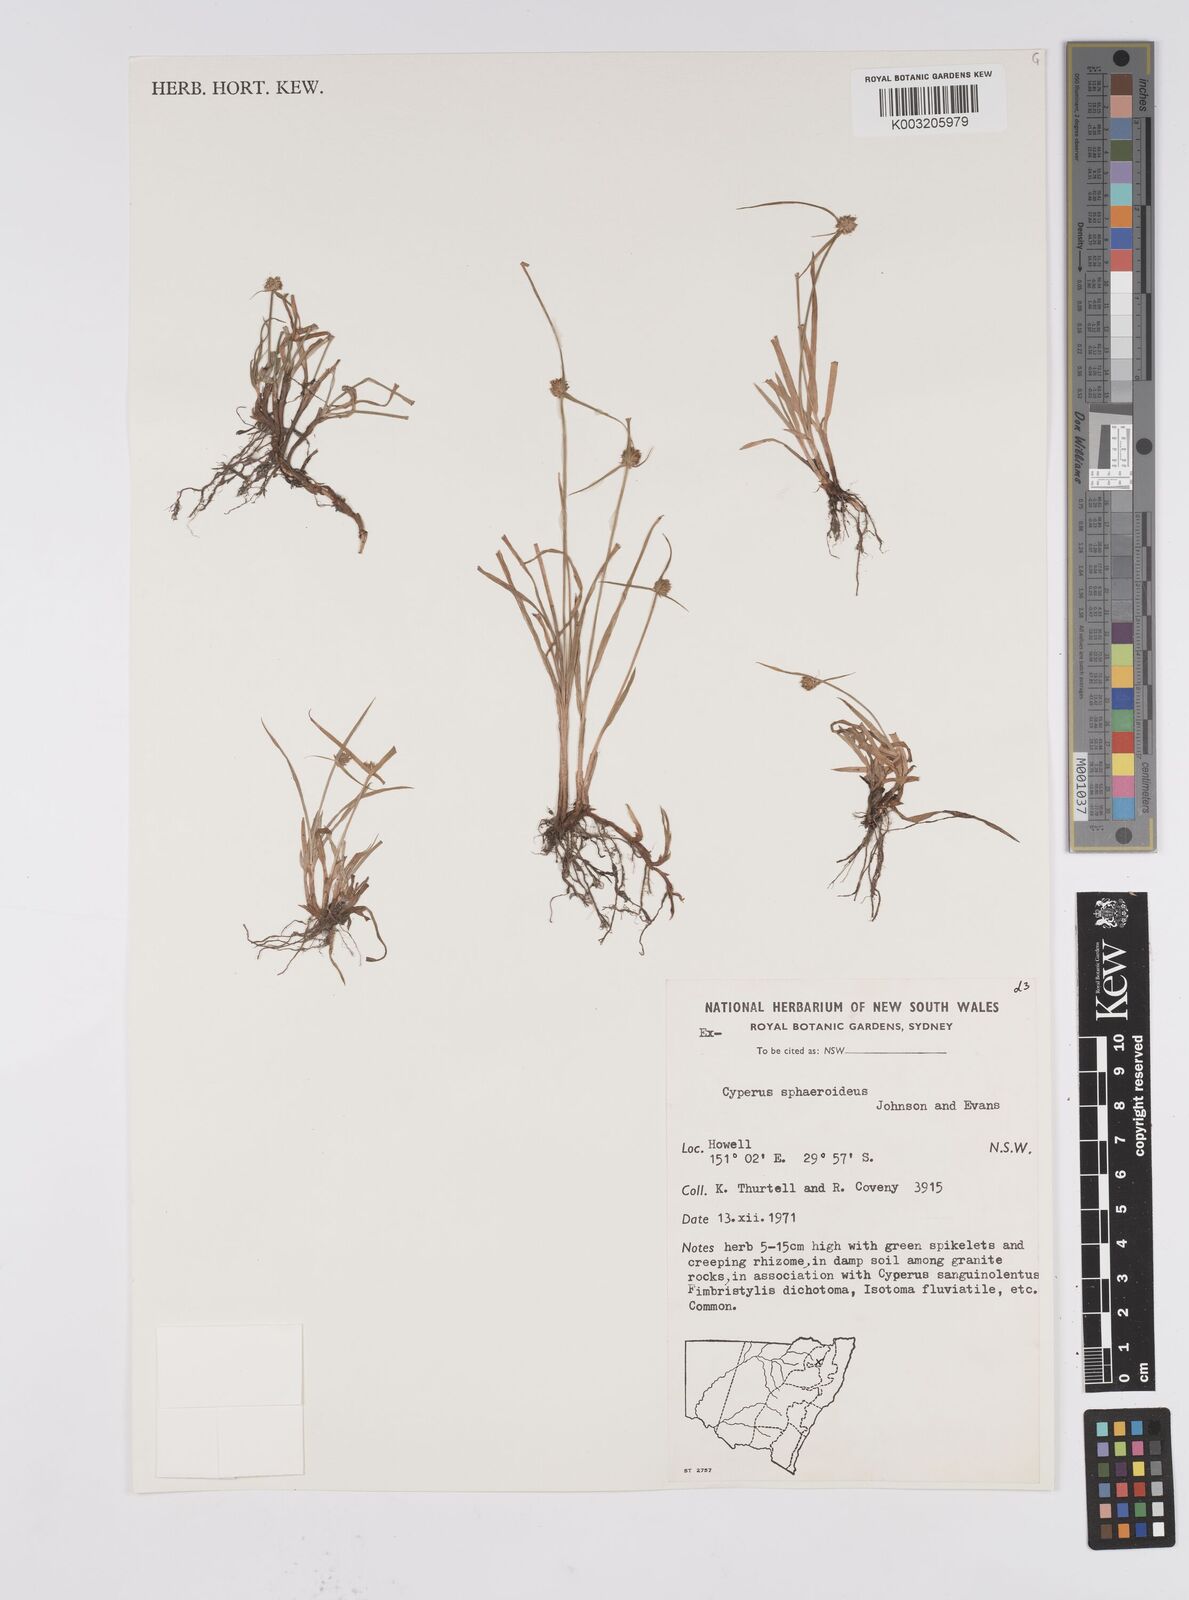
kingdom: Plantae
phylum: Tracheophyta
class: Liliopsida
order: Poales
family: Cyperaceae
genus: Cyperus
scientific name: Cyperus longus
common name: Galingale
